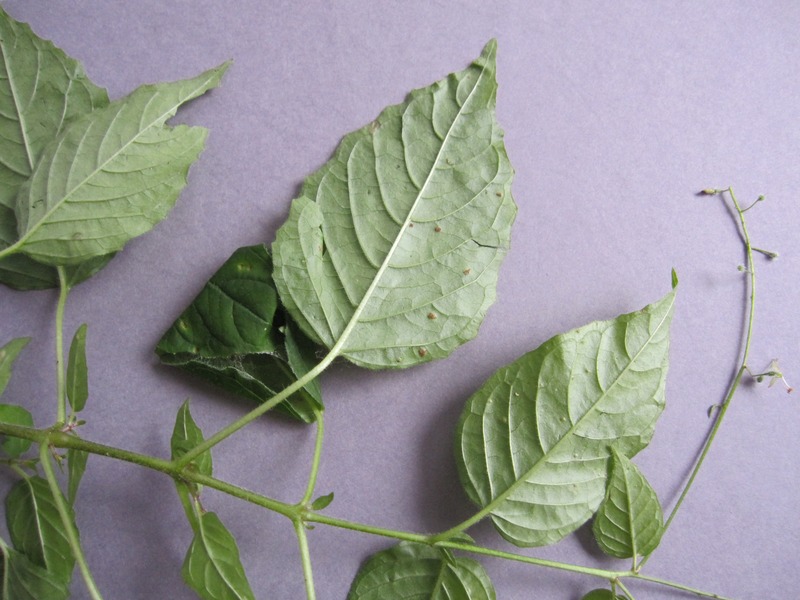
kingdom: Fungi
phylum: Basidiomycota
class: Pucciniomycetes
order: Pucciniales
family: Pucciniaceae
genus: Puccinia
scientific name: Puccinia circaeae
